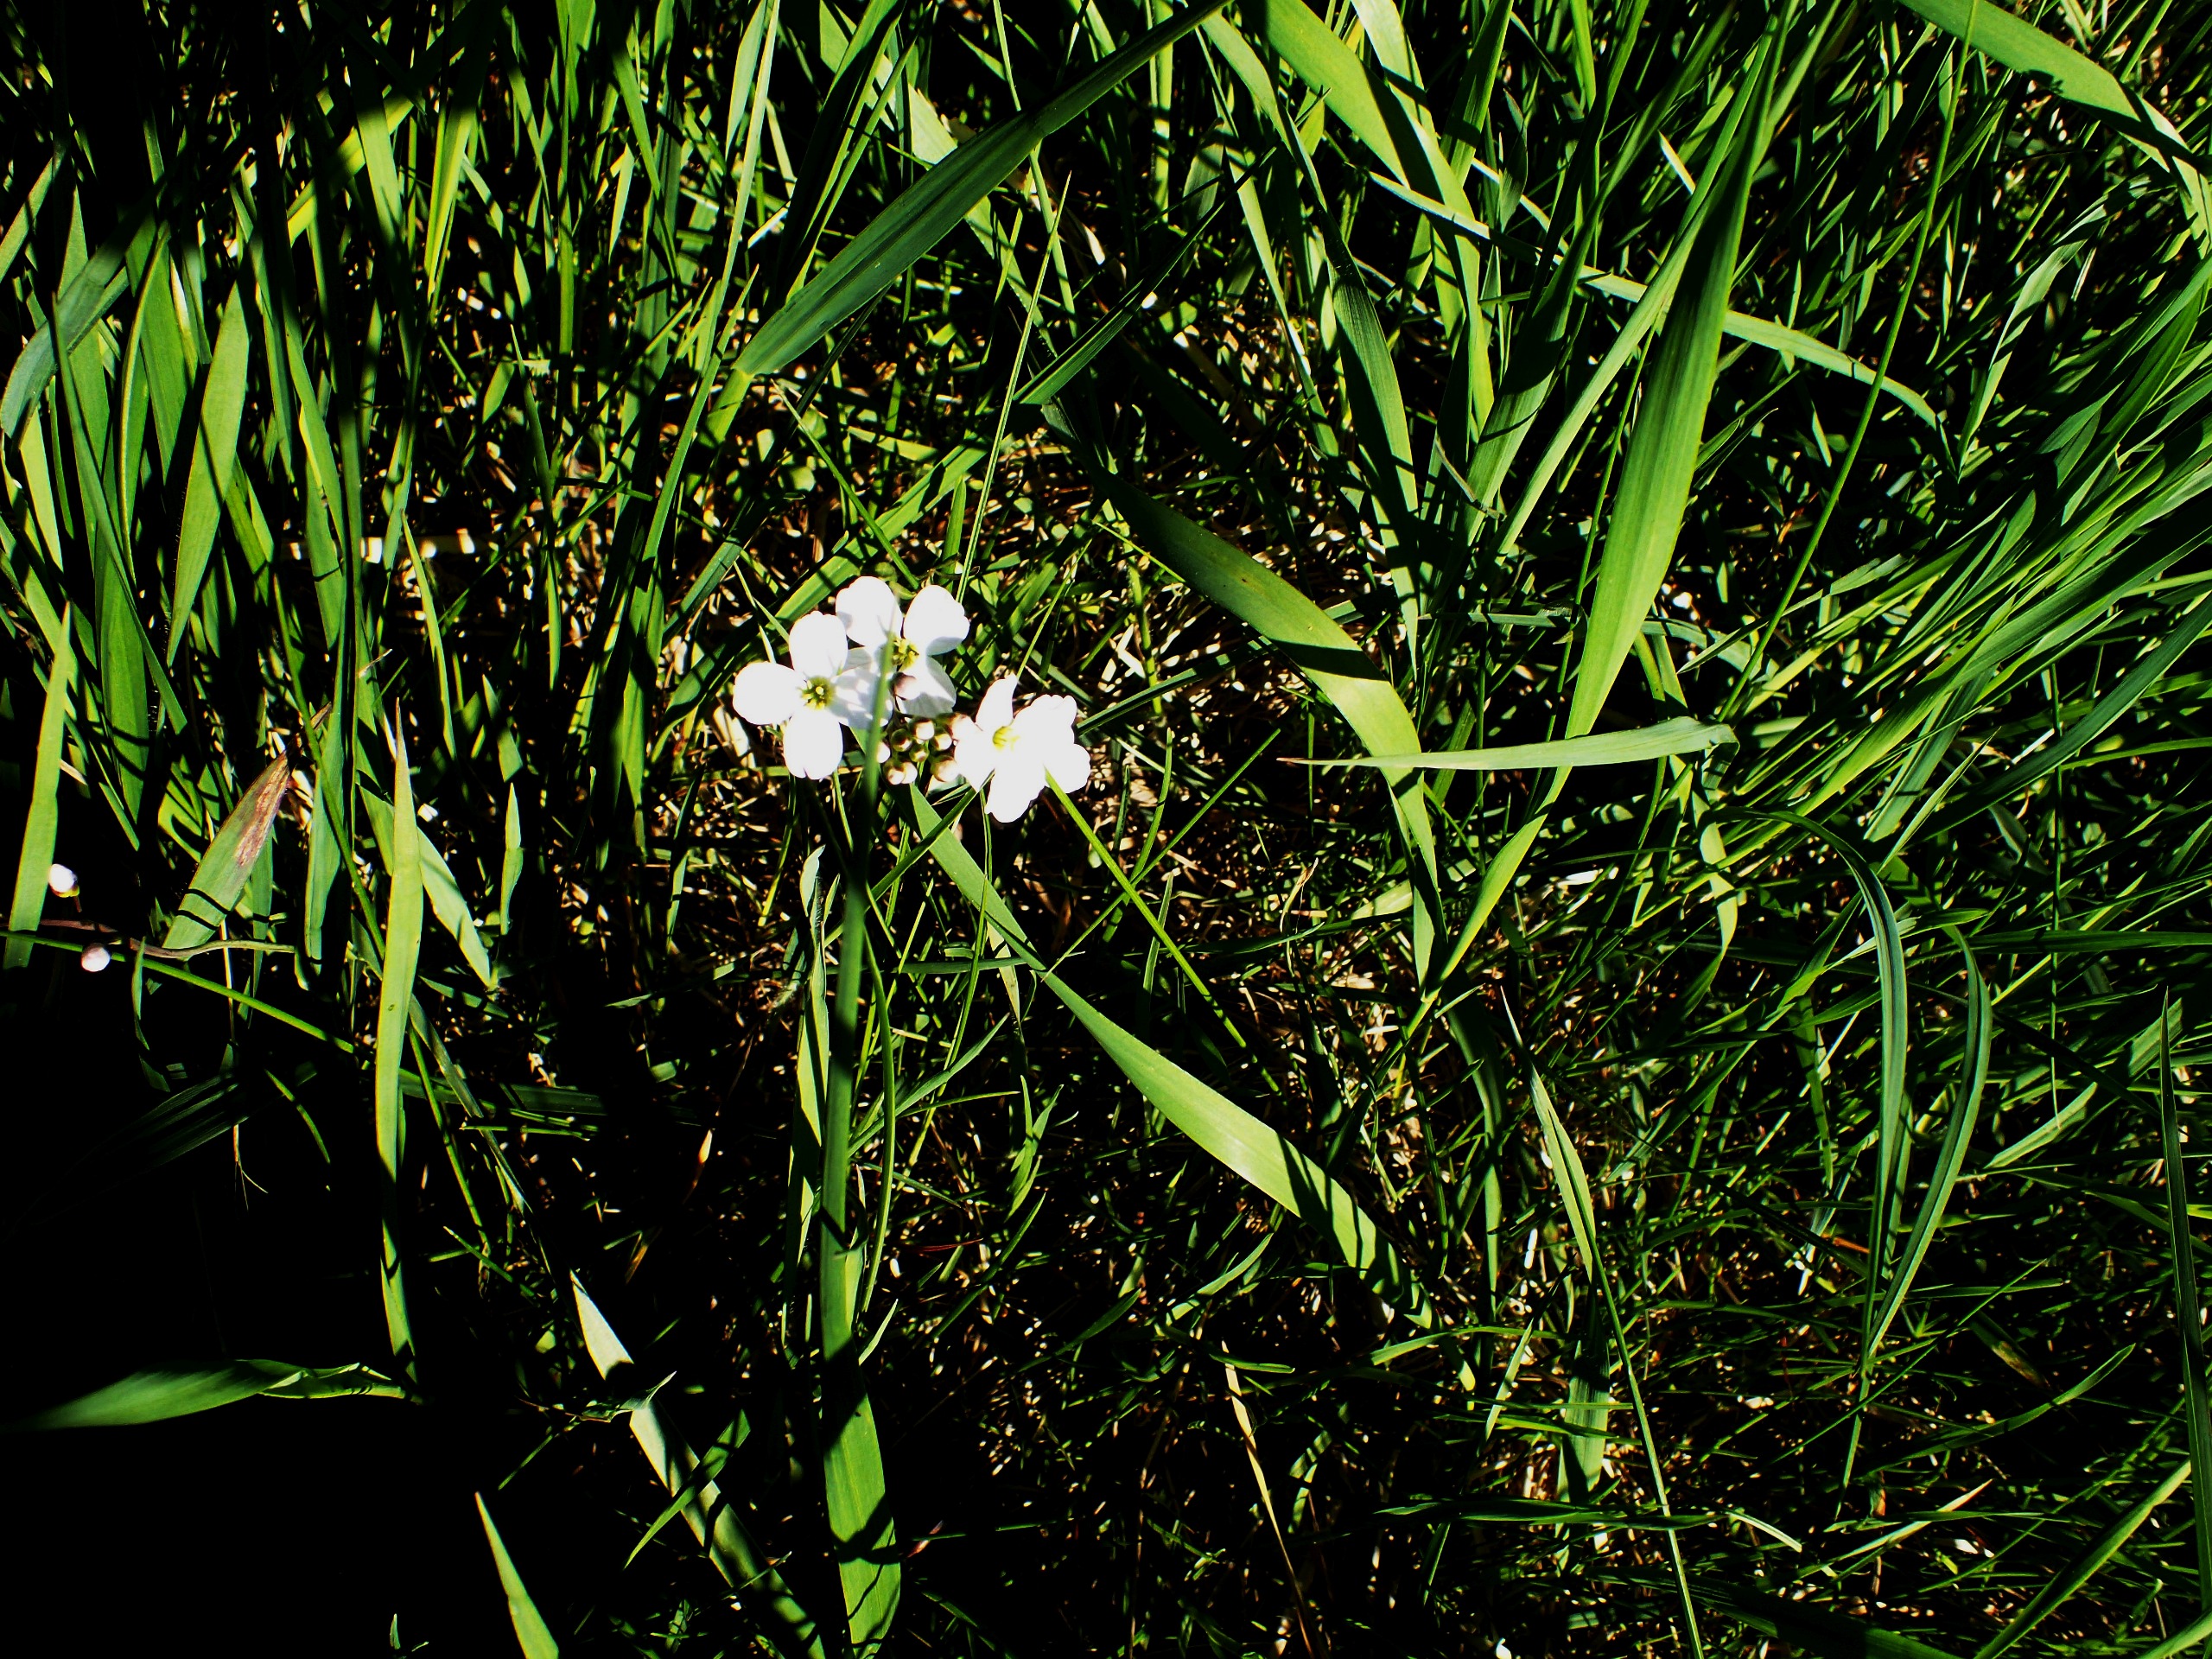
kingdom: Plantae
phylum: Tracheophyta
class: Magnoliopsida
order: Brassicales
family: Brassicaceae
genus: Cardamine
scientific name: Cardamine pratensis
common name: Almindelig engkarse
